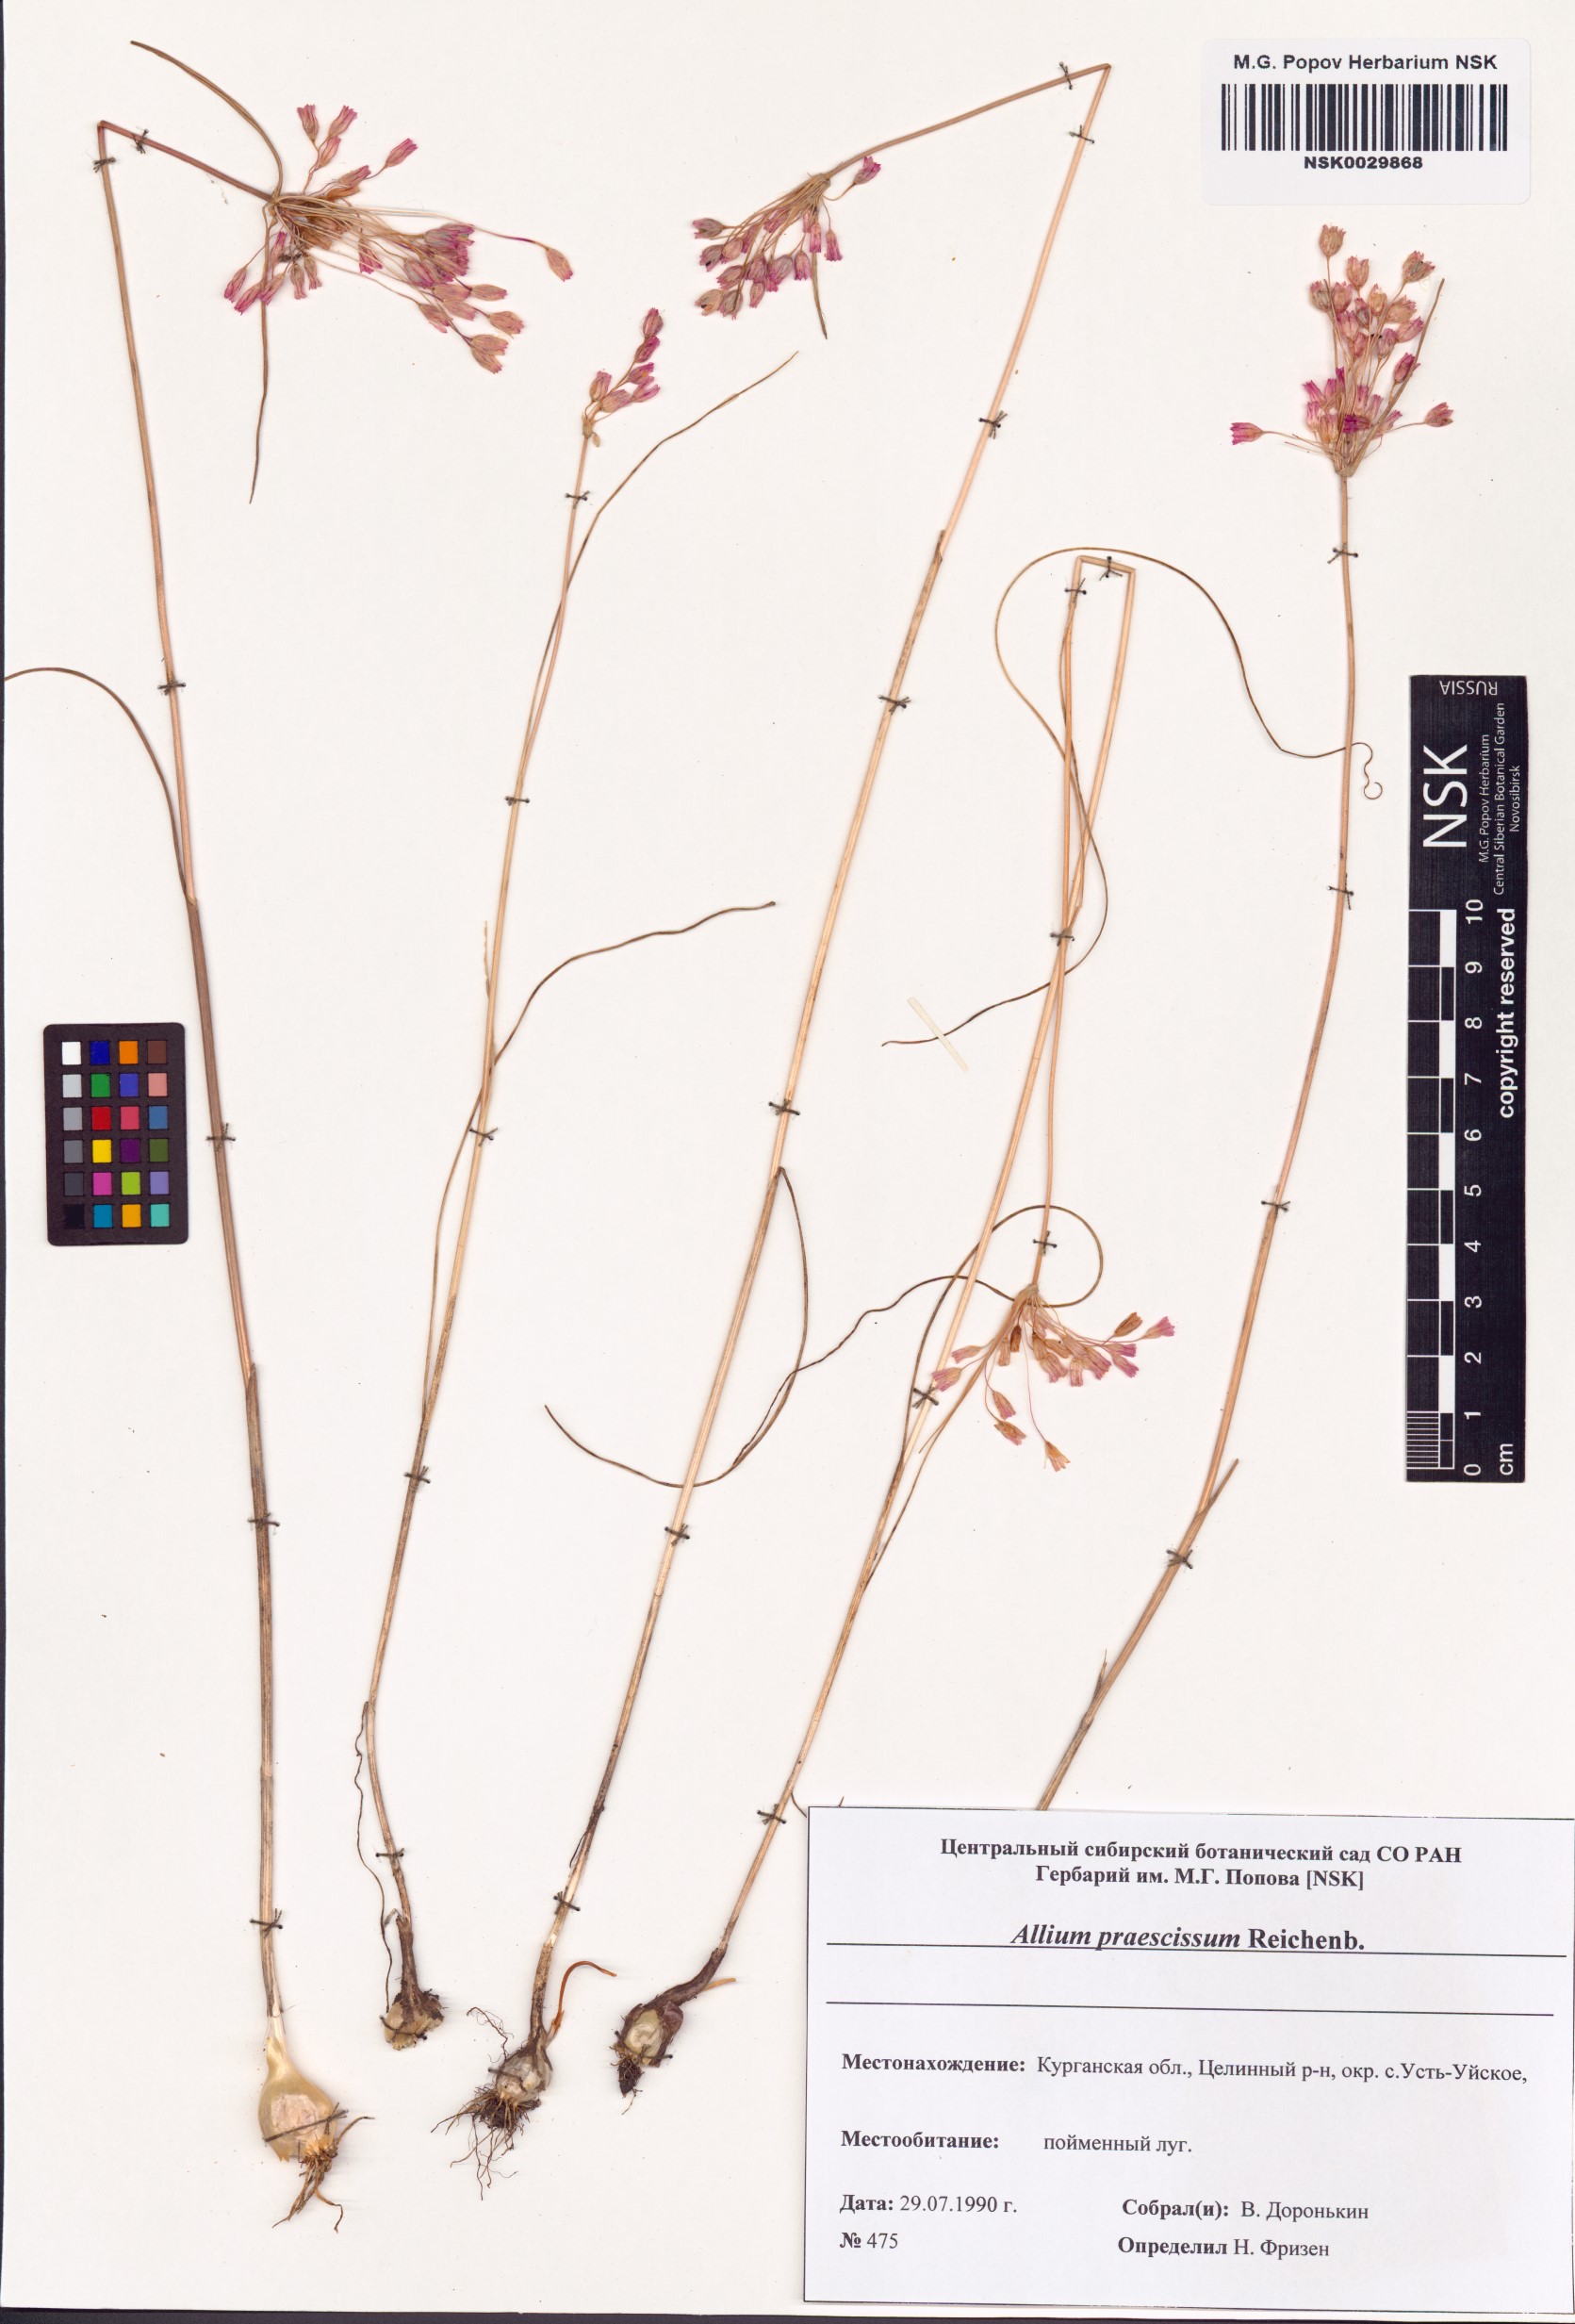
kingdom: Plantae
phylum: Tracheophyta
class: Liliopsida
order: Asparagales
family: Amaryllidaceae
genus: Allium
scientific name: Allium praescissum
